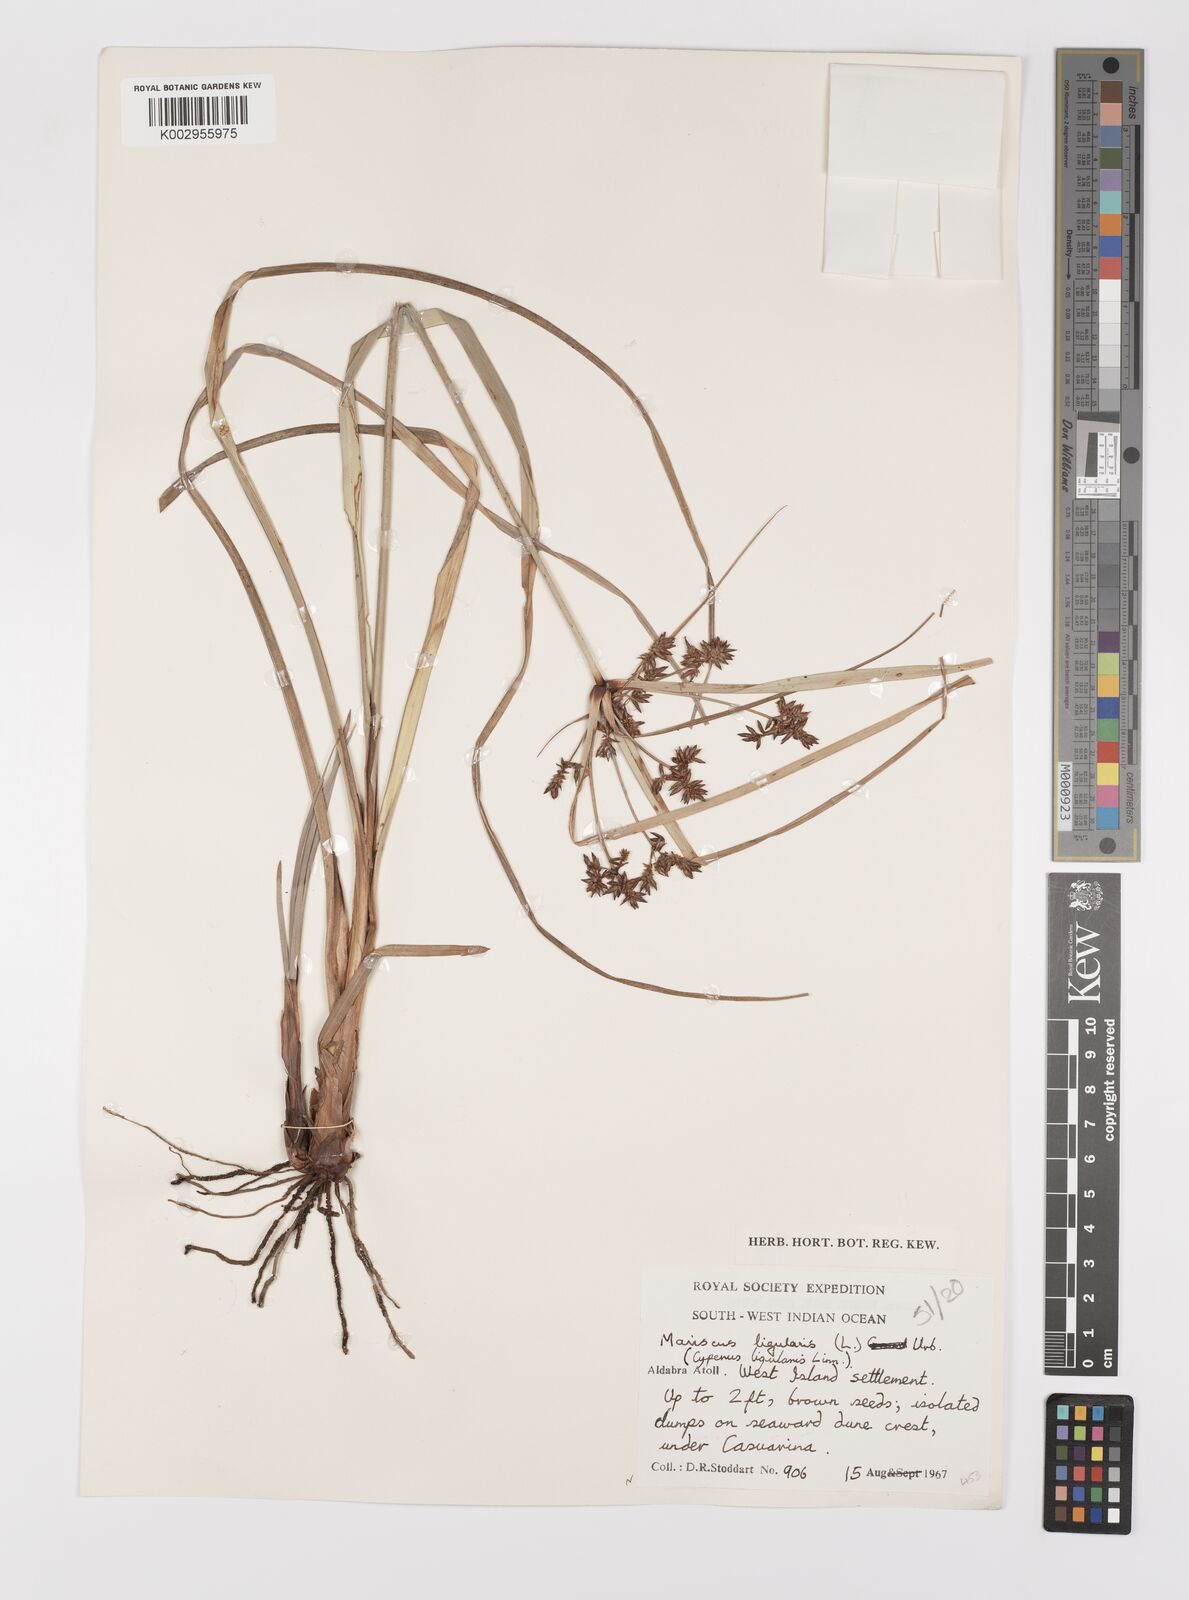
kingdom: Plantae
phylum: Tracheophyta
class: Liliopsida
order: Poales
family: Cyperaceae
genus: Cyperus
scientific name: Cyperus ligularis
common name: Swamp flat sedge
